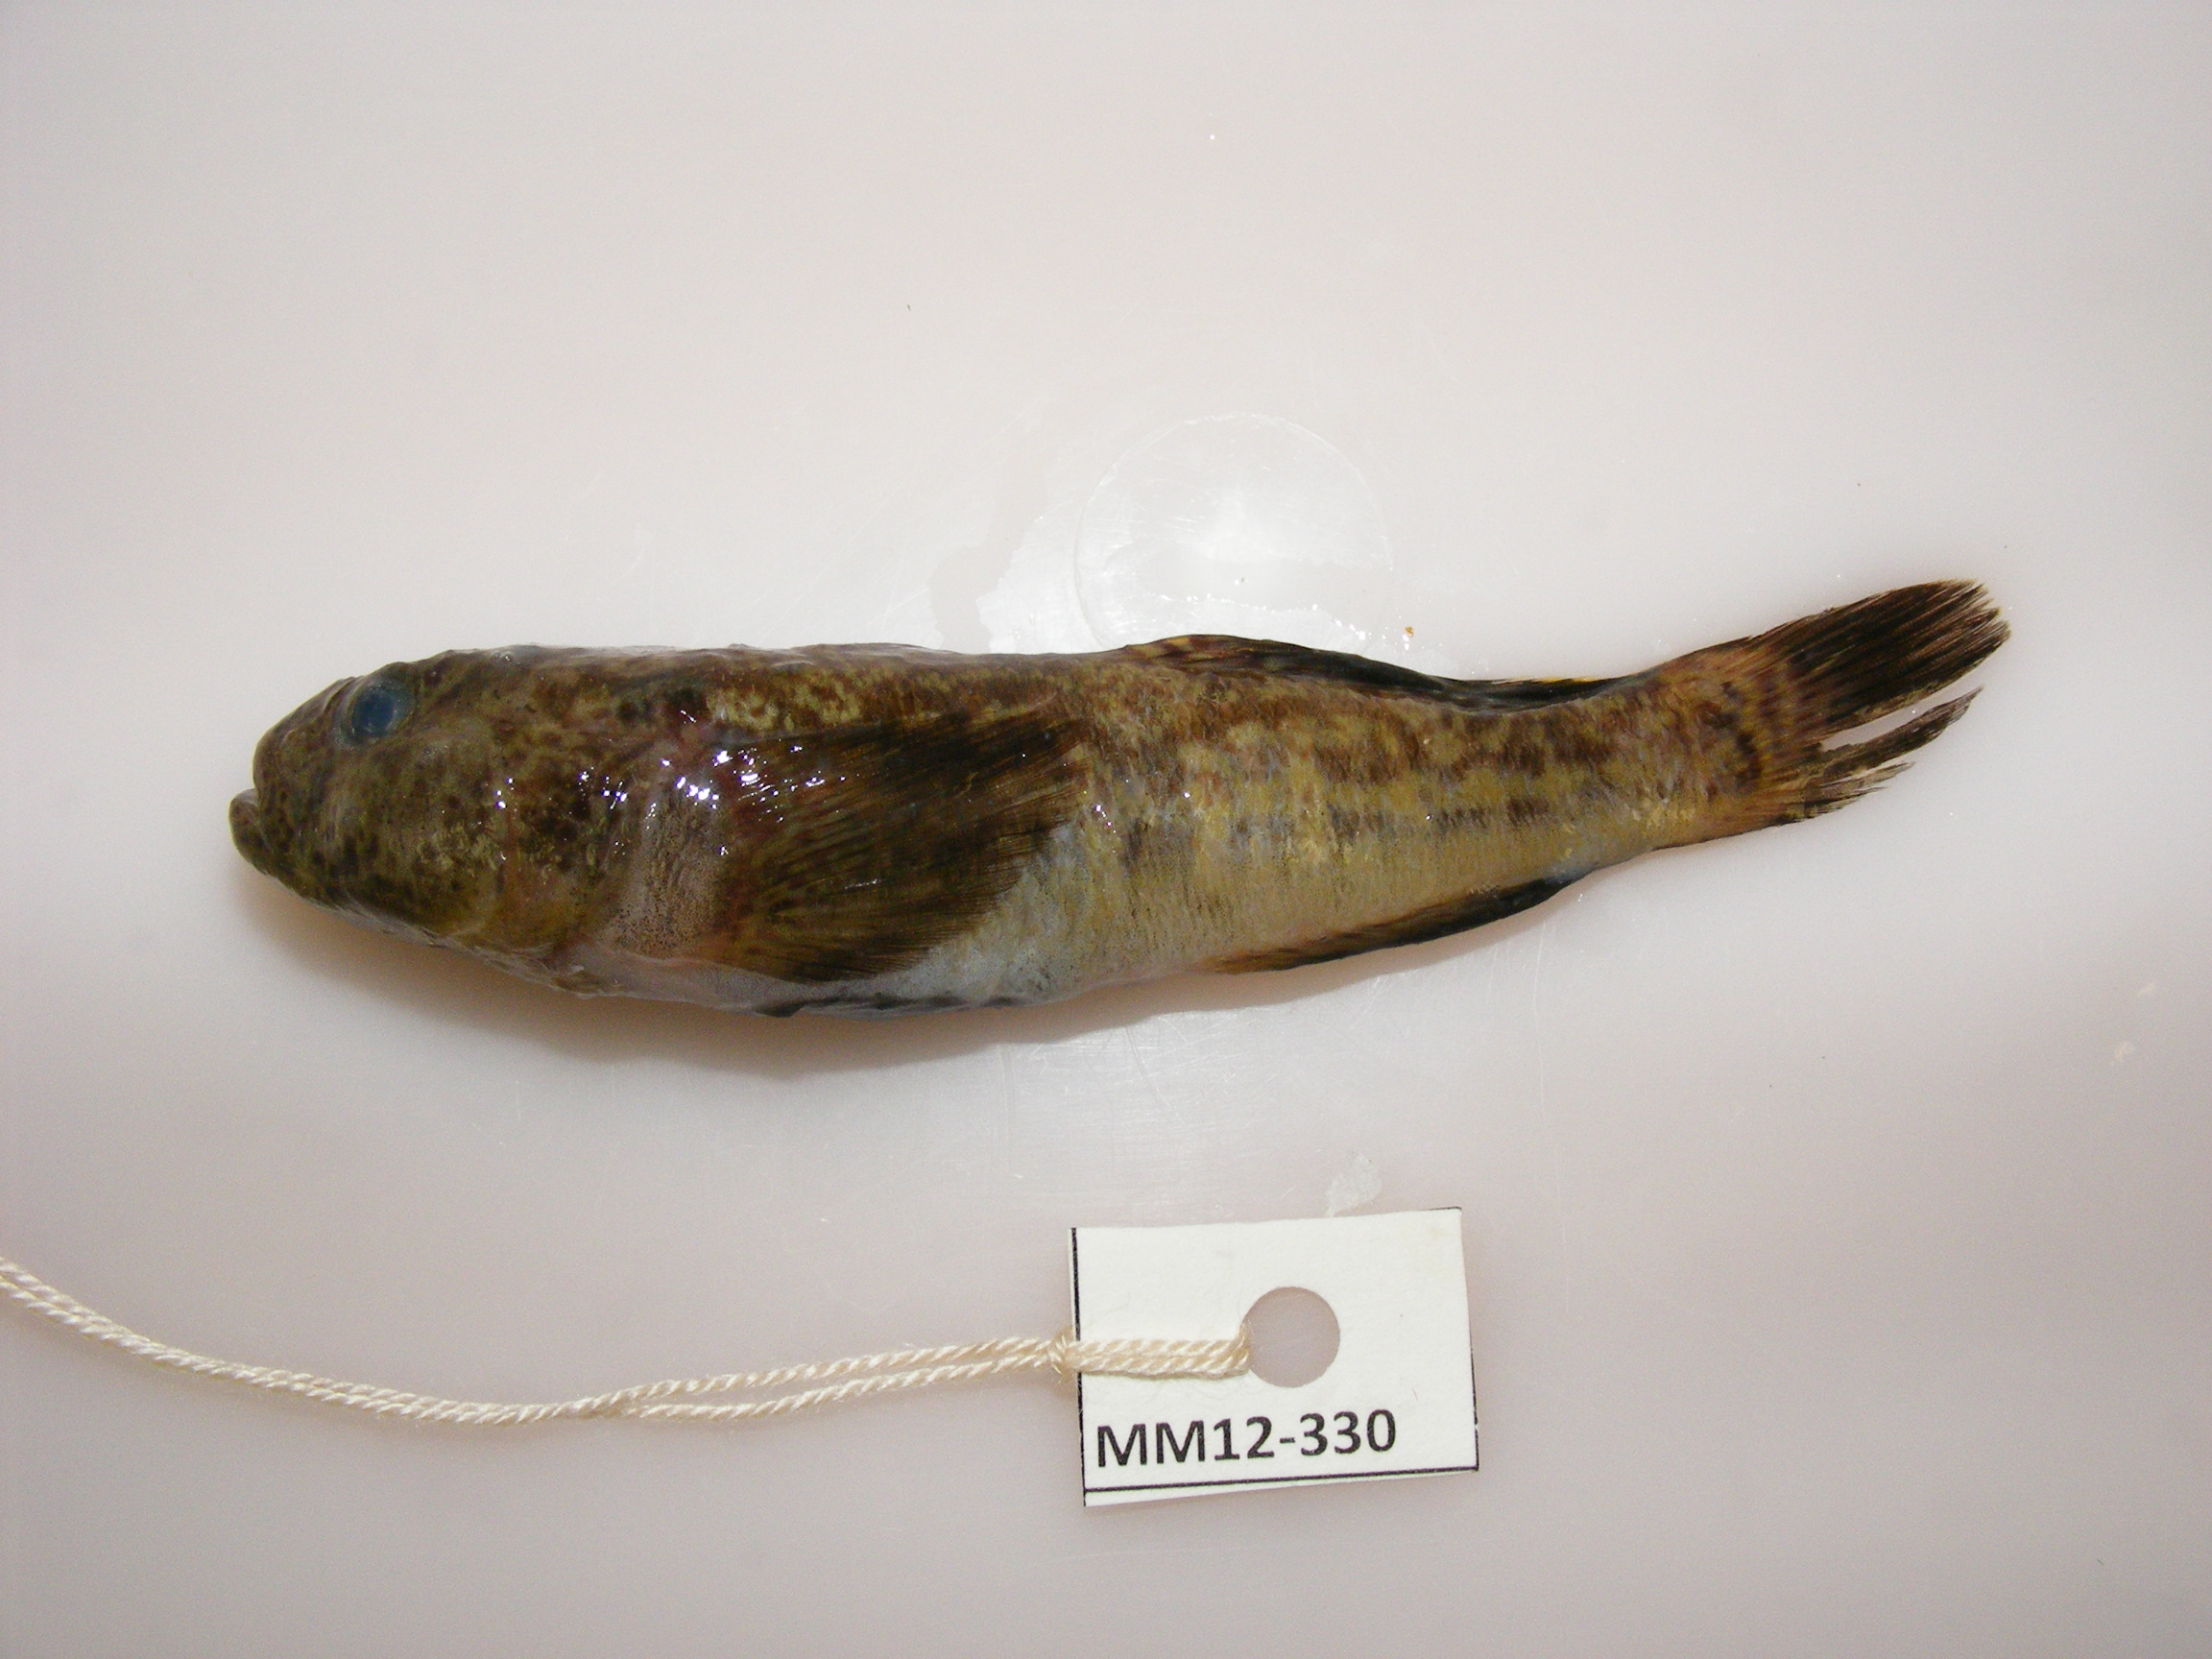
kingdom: Animalia
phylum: Chordata
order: Perciformes
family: Gobiidae
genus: Caffrogobius
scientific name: Caffrogobius caffer
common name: Banded goby
